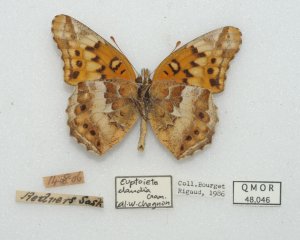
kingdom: Animalia
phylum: Arthropoda
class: Insecta
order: Lepidoptera
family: Nymphalidae
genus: Euptoieta
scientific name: Euptoieta claudia
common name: Variegated Fritillary
